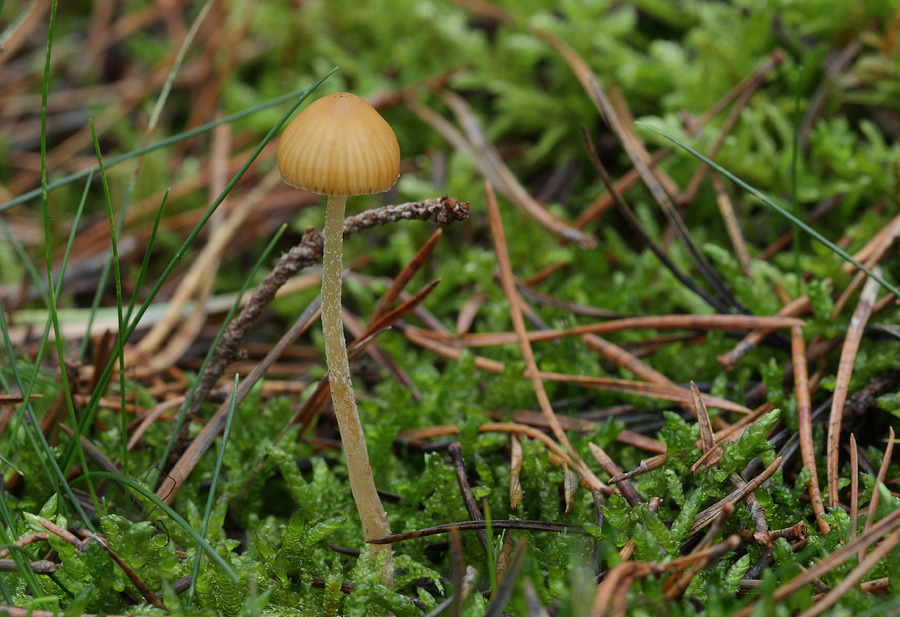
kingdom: Fungi
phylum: Basidiomycota
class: Agaricomycetes
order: Agaricales
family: Hymenogastraceae
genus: Galerina
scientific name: Galerina subclavata
